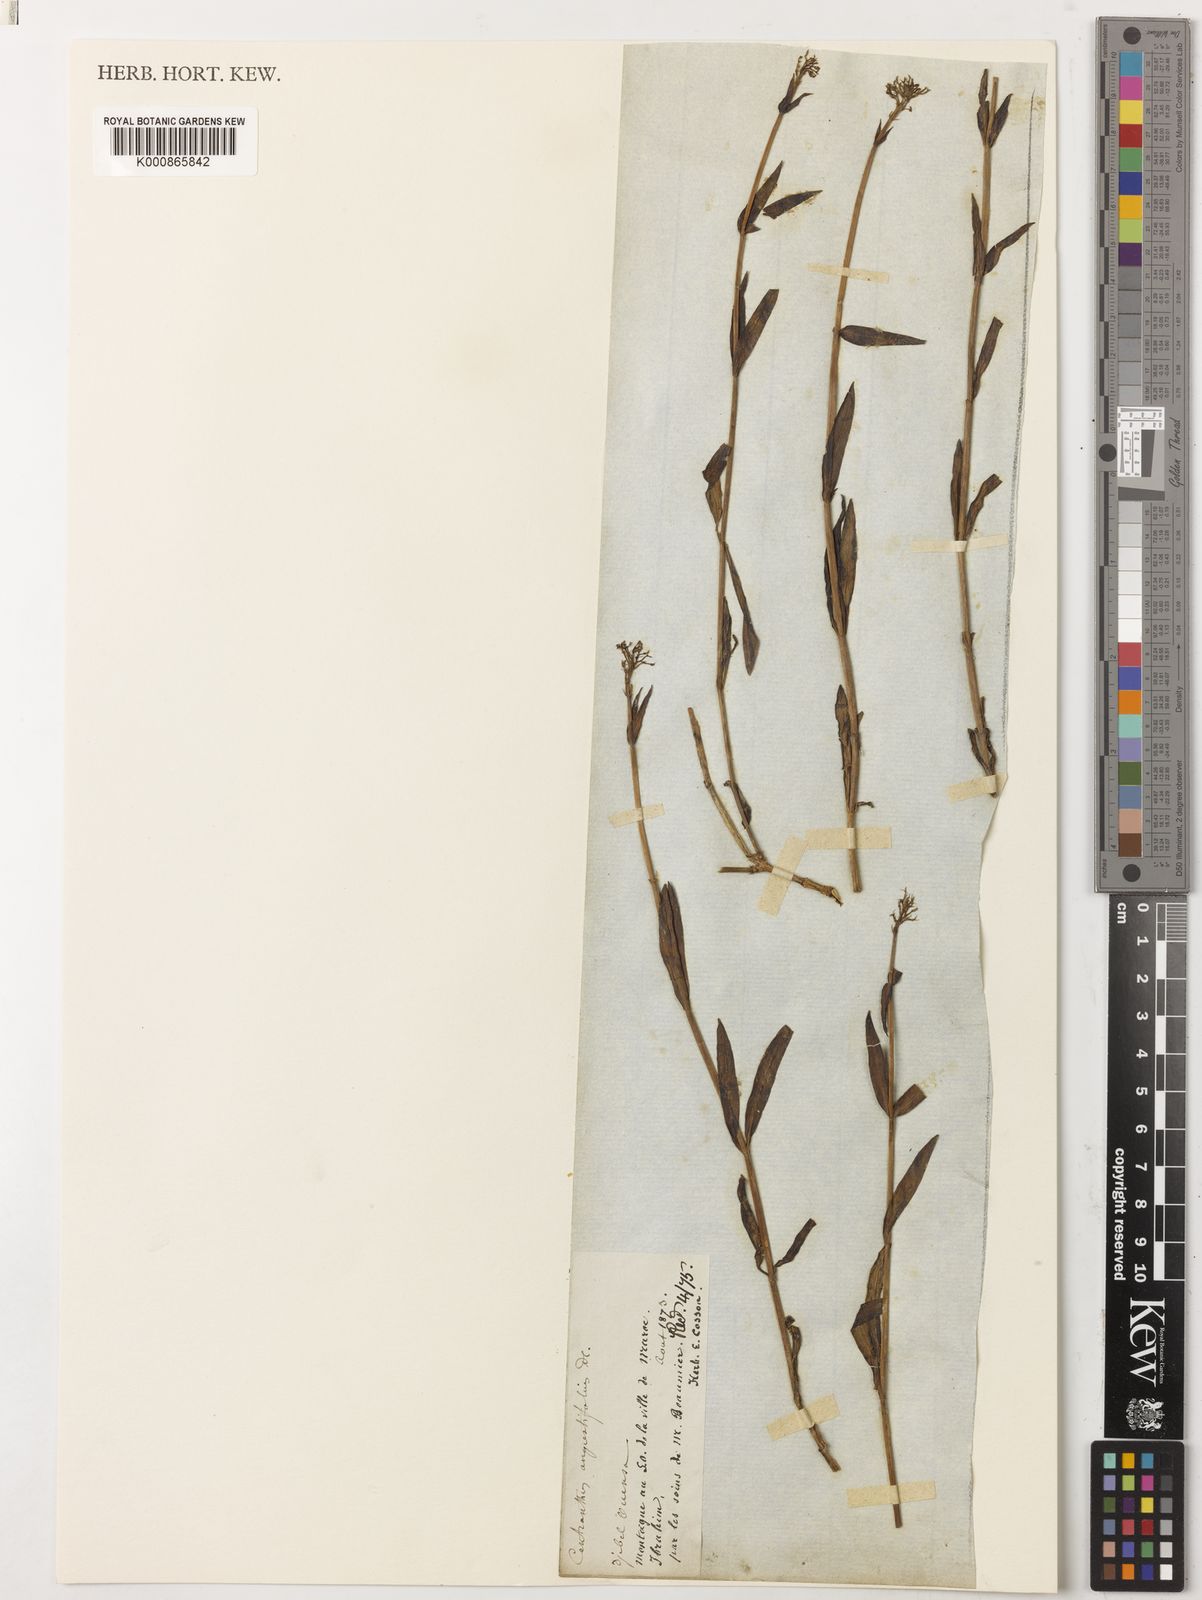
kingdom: Plantae
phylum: Tracheophyta
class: Magnoliopsida
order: Dipsacales
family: Caprifoliaceae
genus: Centranthus
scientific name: Centranthus angustifolius
